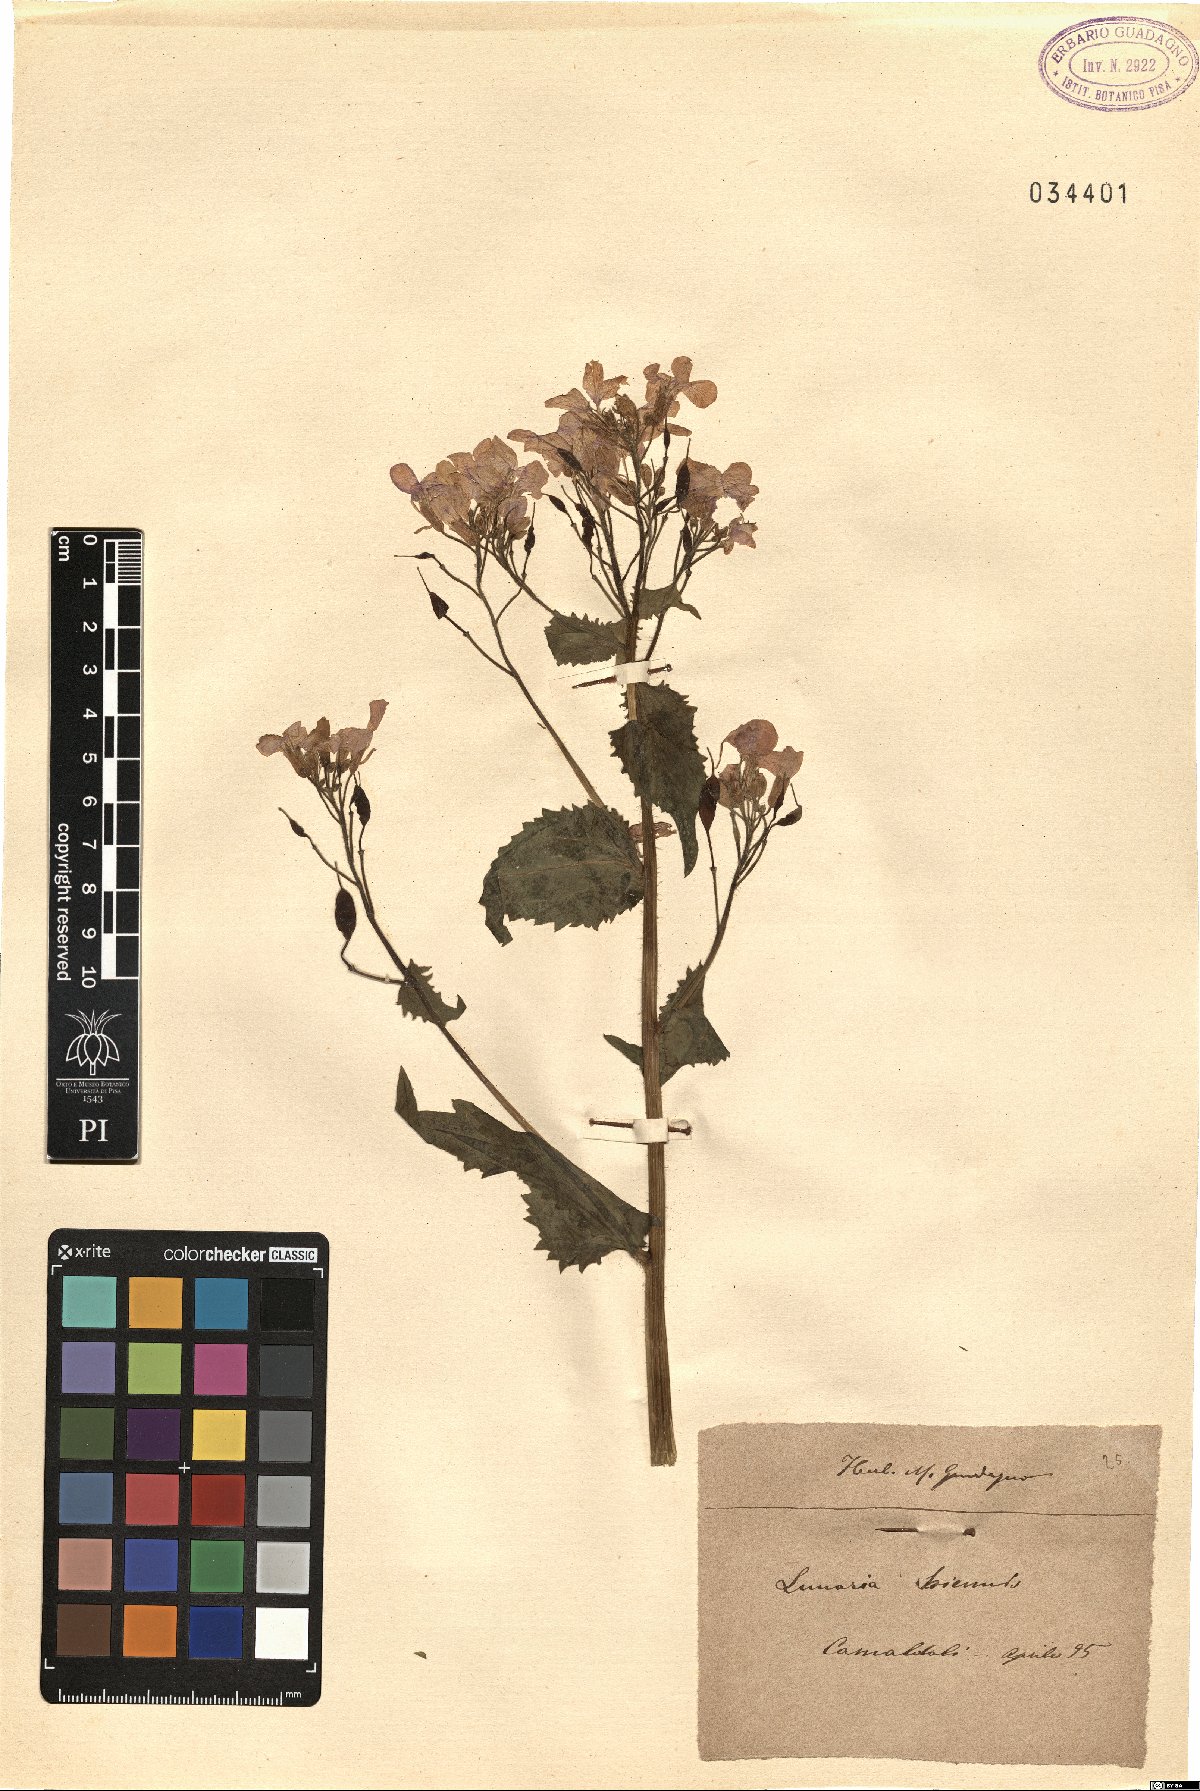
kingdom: Plantae
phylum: Tracheophyta
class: Magnoliopsida
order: Brassicales
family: Brassicaceae
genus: Lunaria
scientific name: Lunaria annua
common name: Honesty
